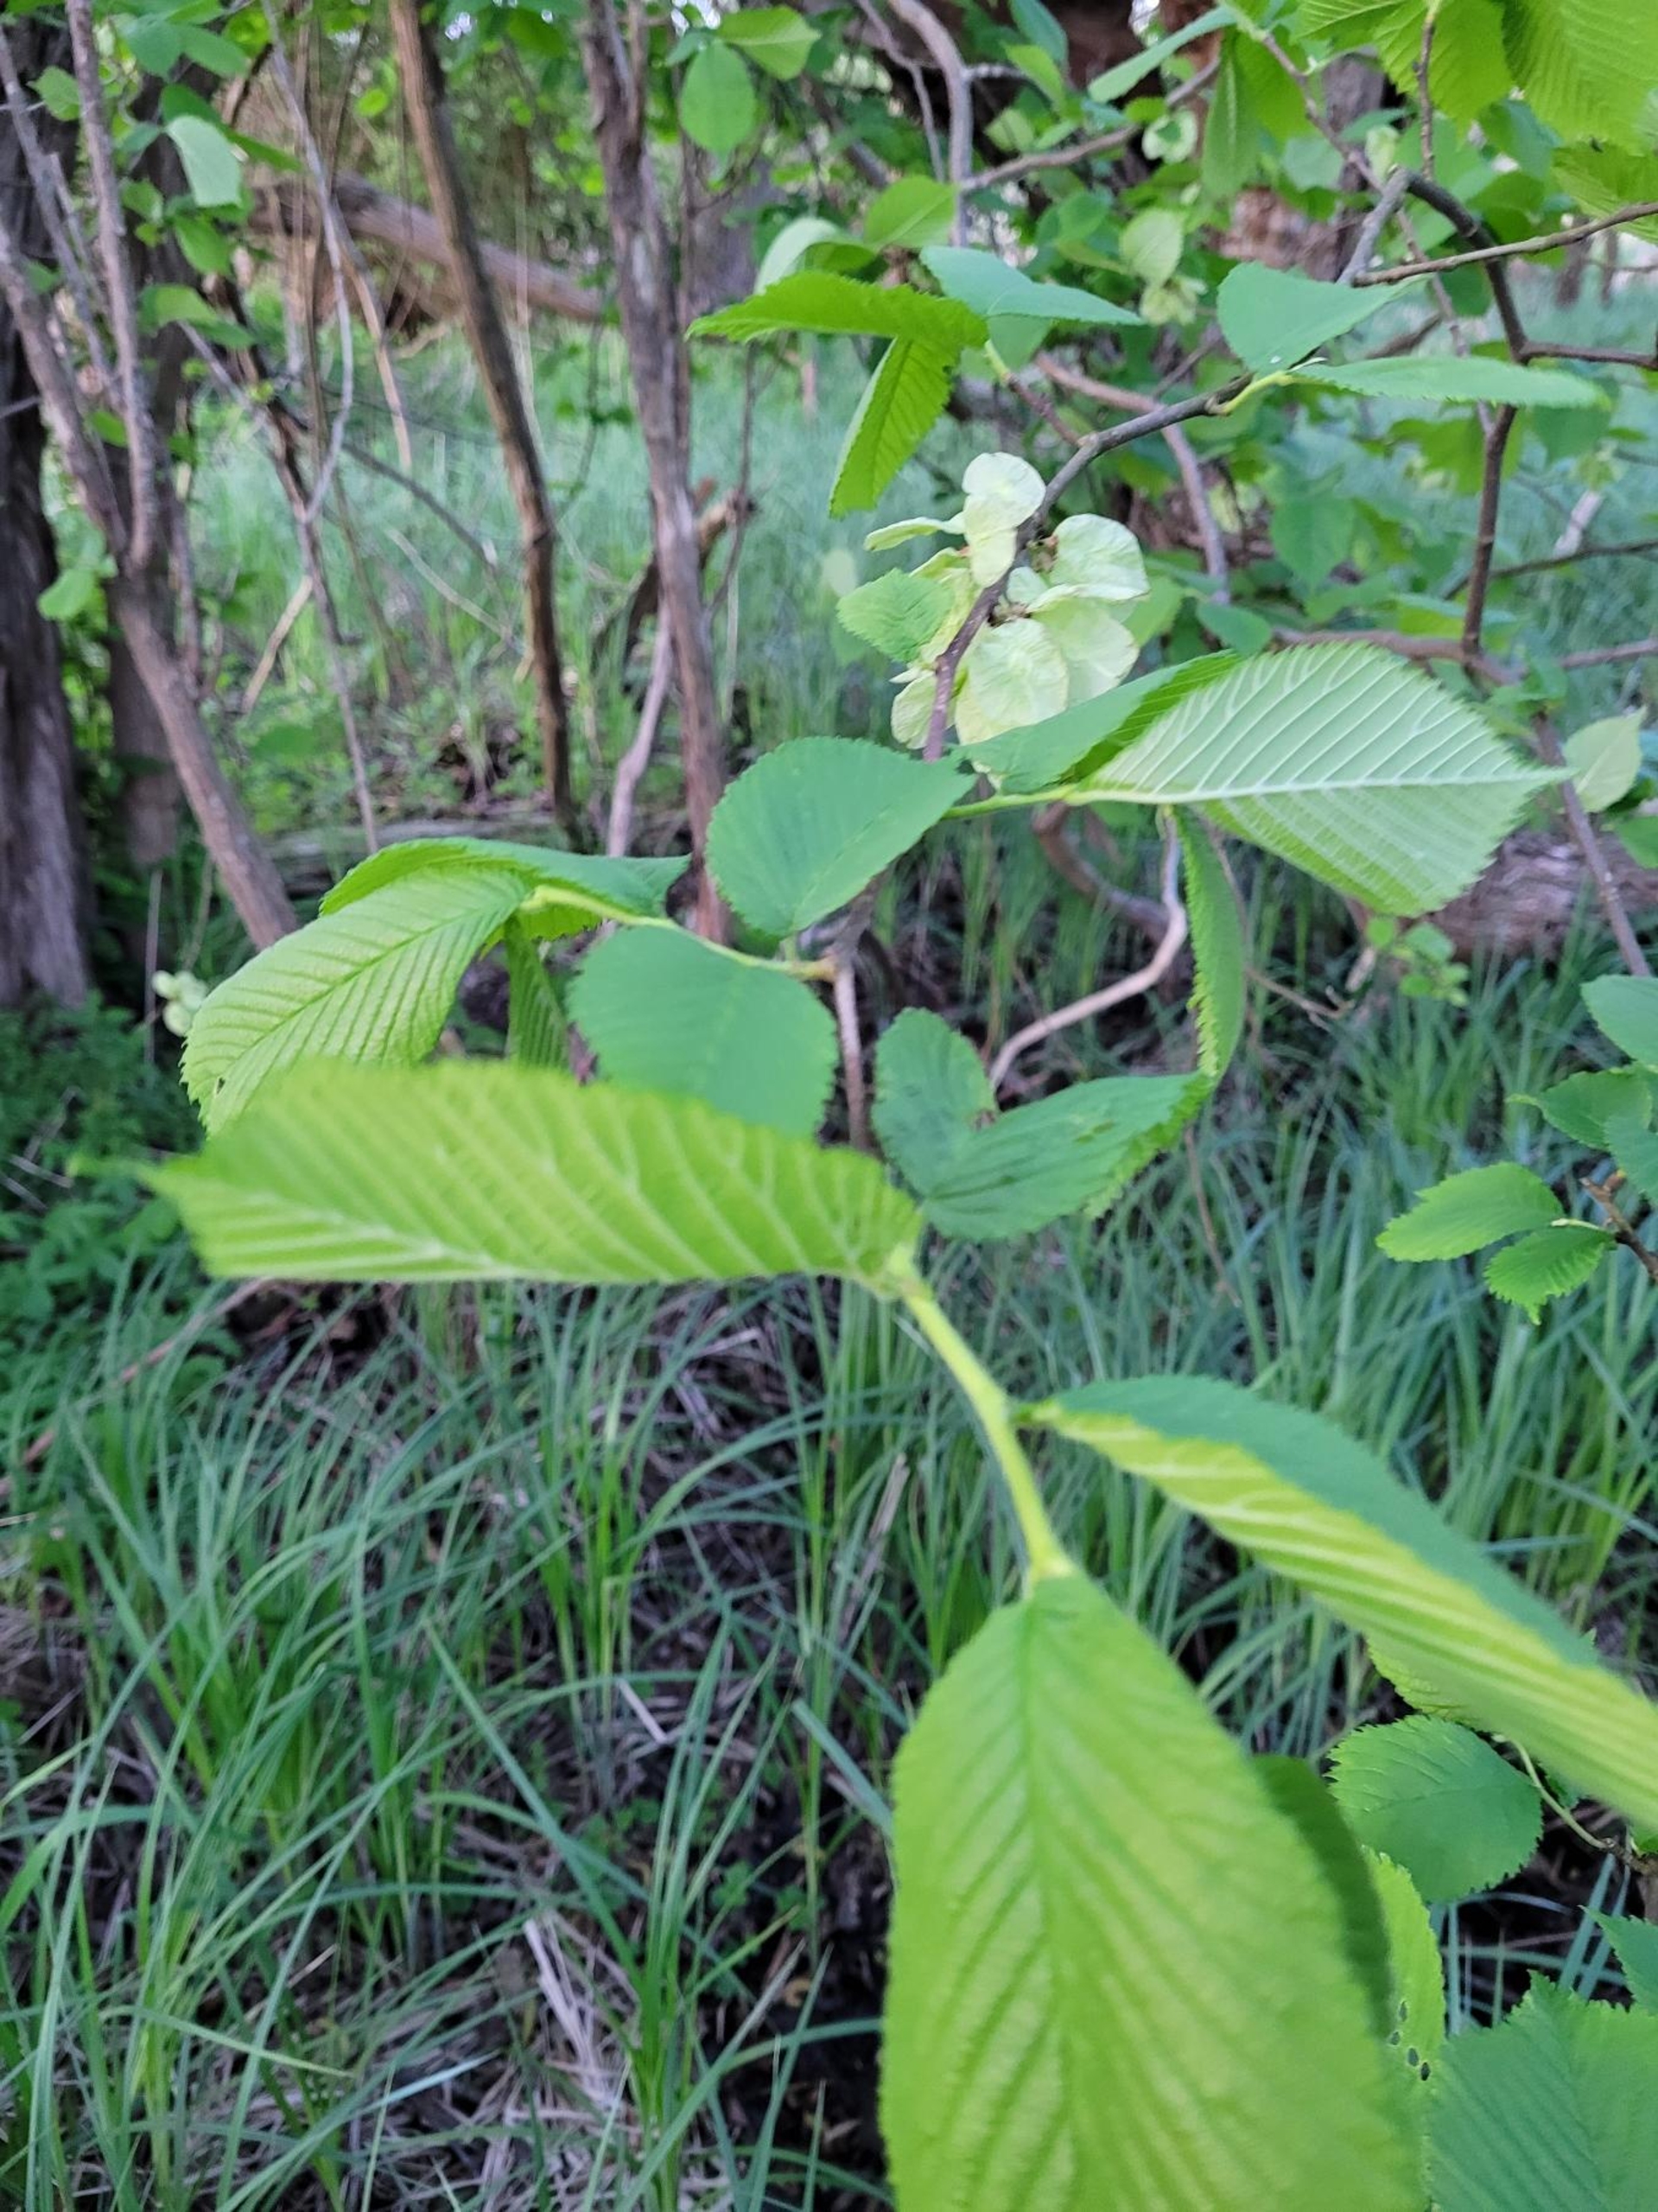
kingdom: Plantae
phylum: Tracheophyta
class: Magnoliopsida
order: Rosales
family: Ulmaceae
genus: Ulmus
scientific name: Ulmus glabra
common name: Skov-elm/storbladet elm
